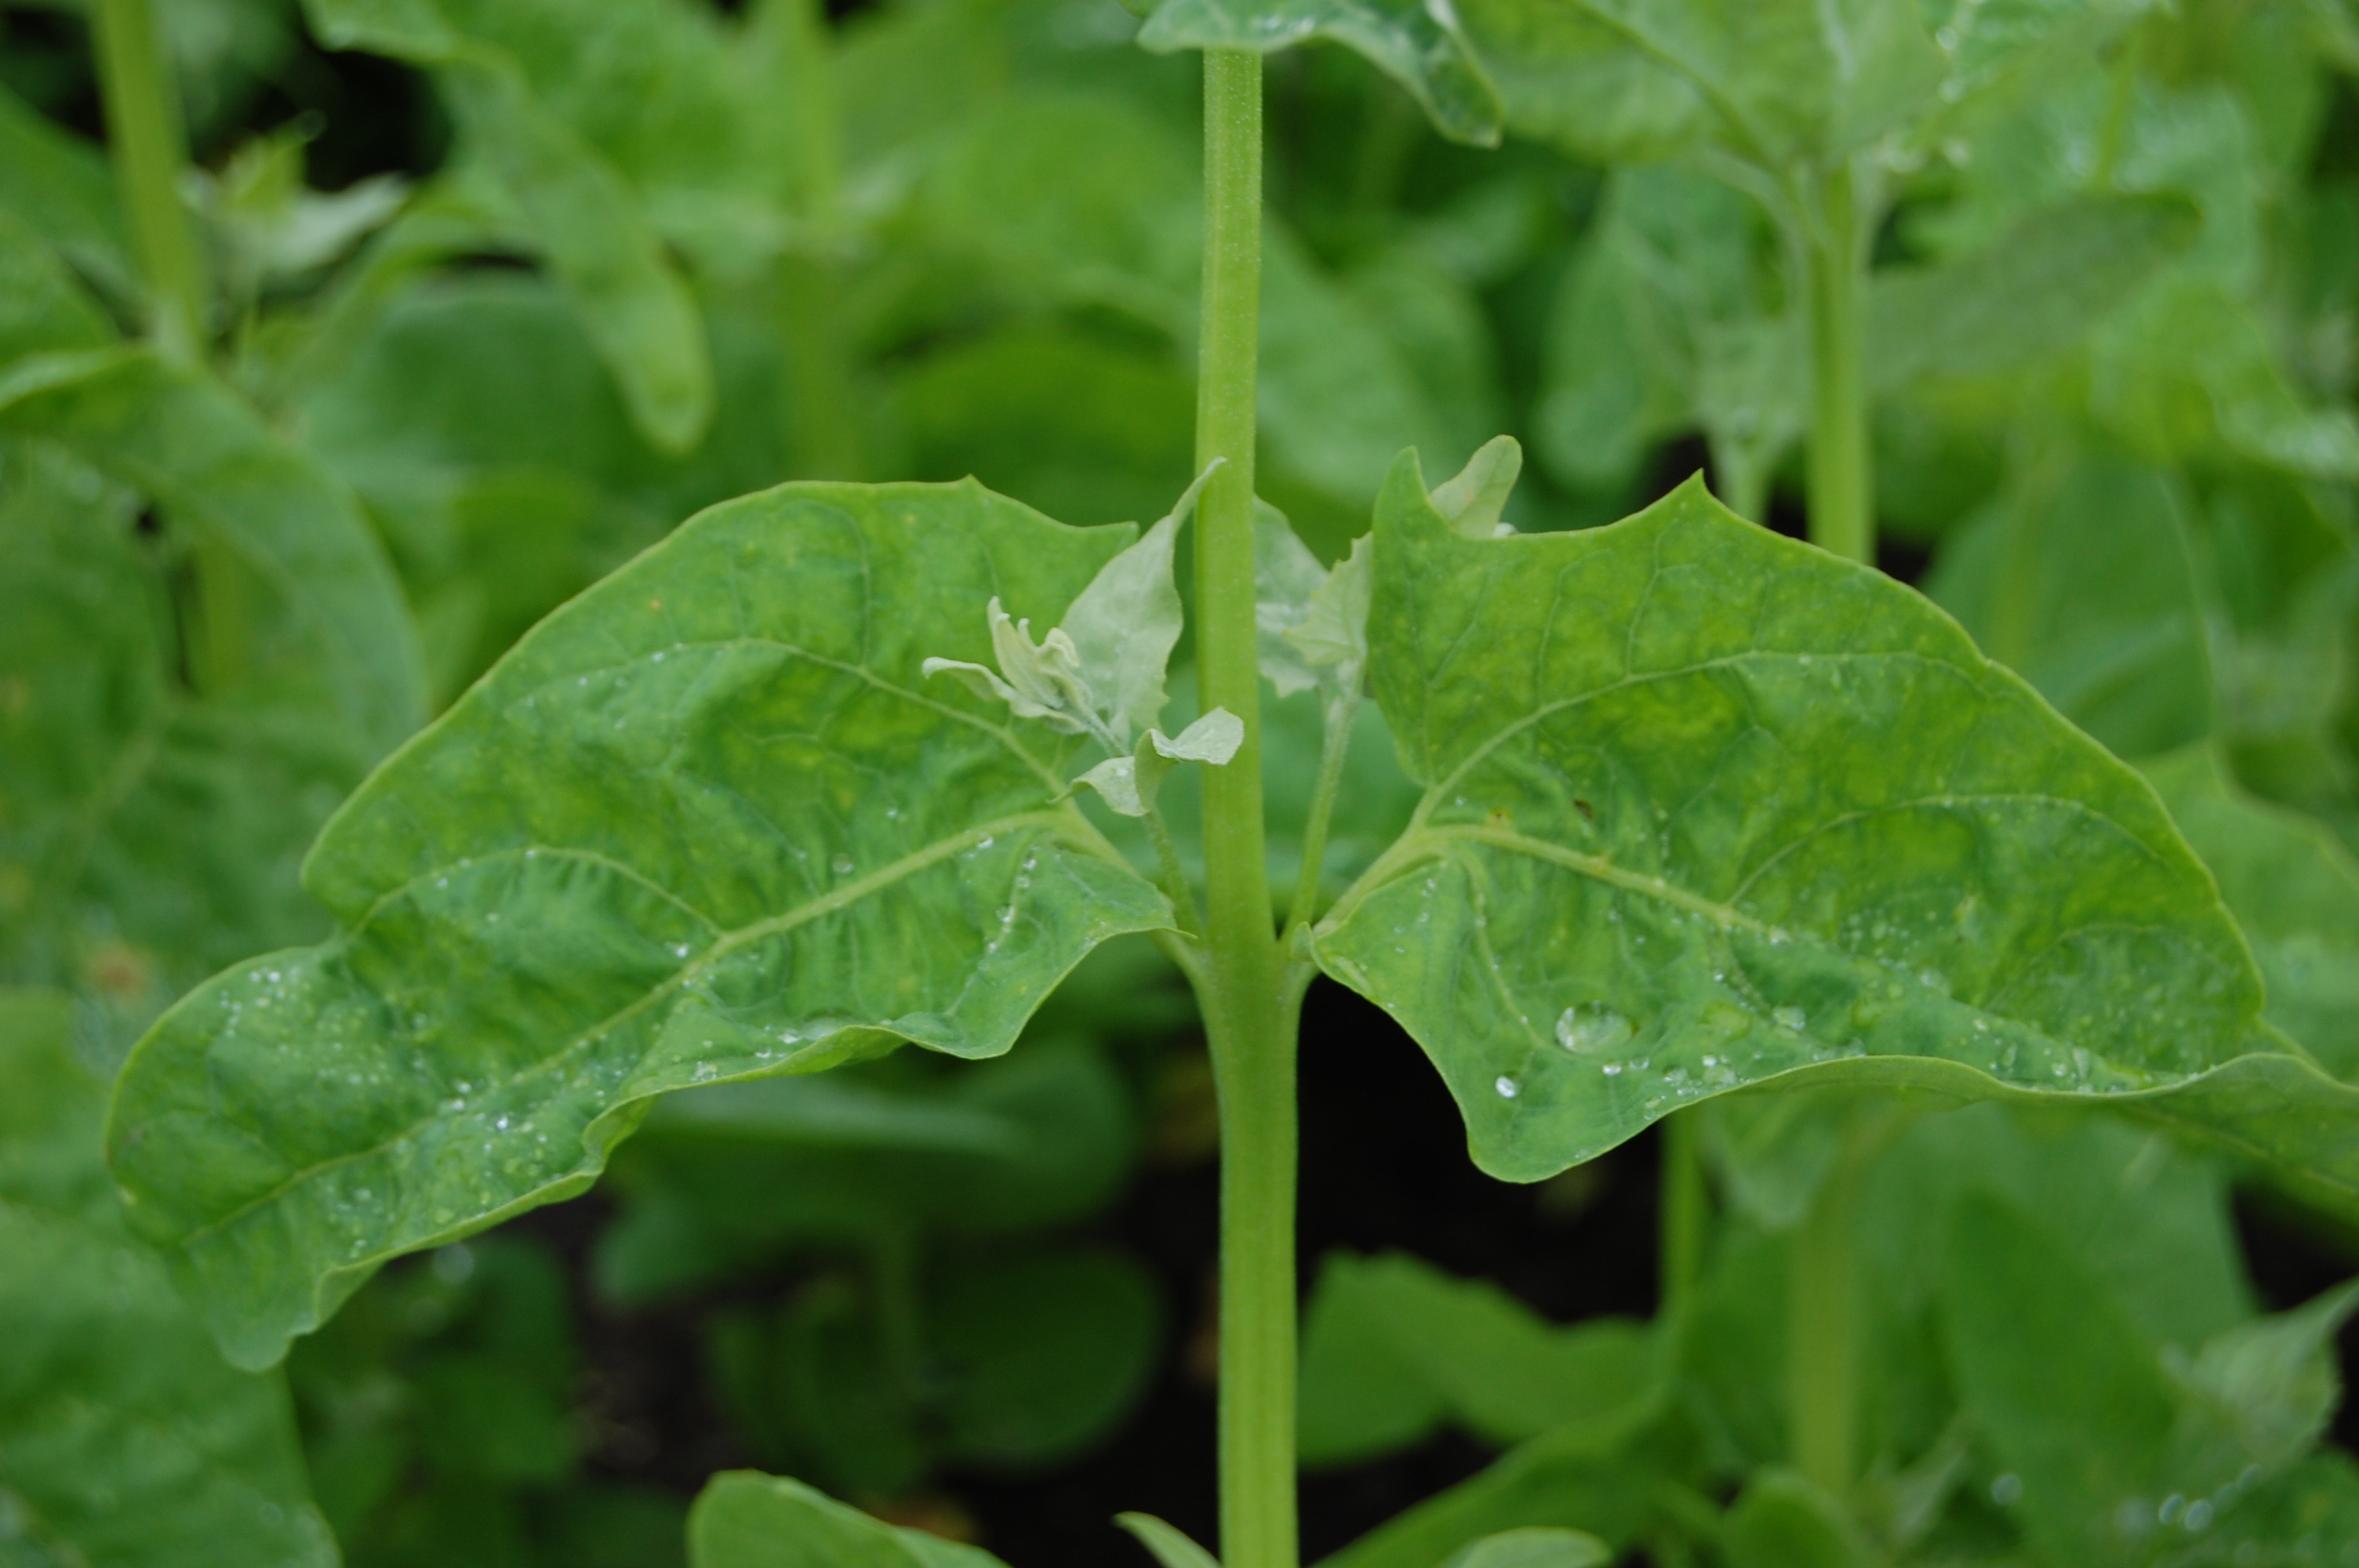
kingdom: Plantae
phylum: Tracheophyta
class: Magnoliopsida
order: Caryophyllales
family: Amaranthaceae
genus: Atriplex
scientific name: Atriplex hortensis
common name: Garden orache
